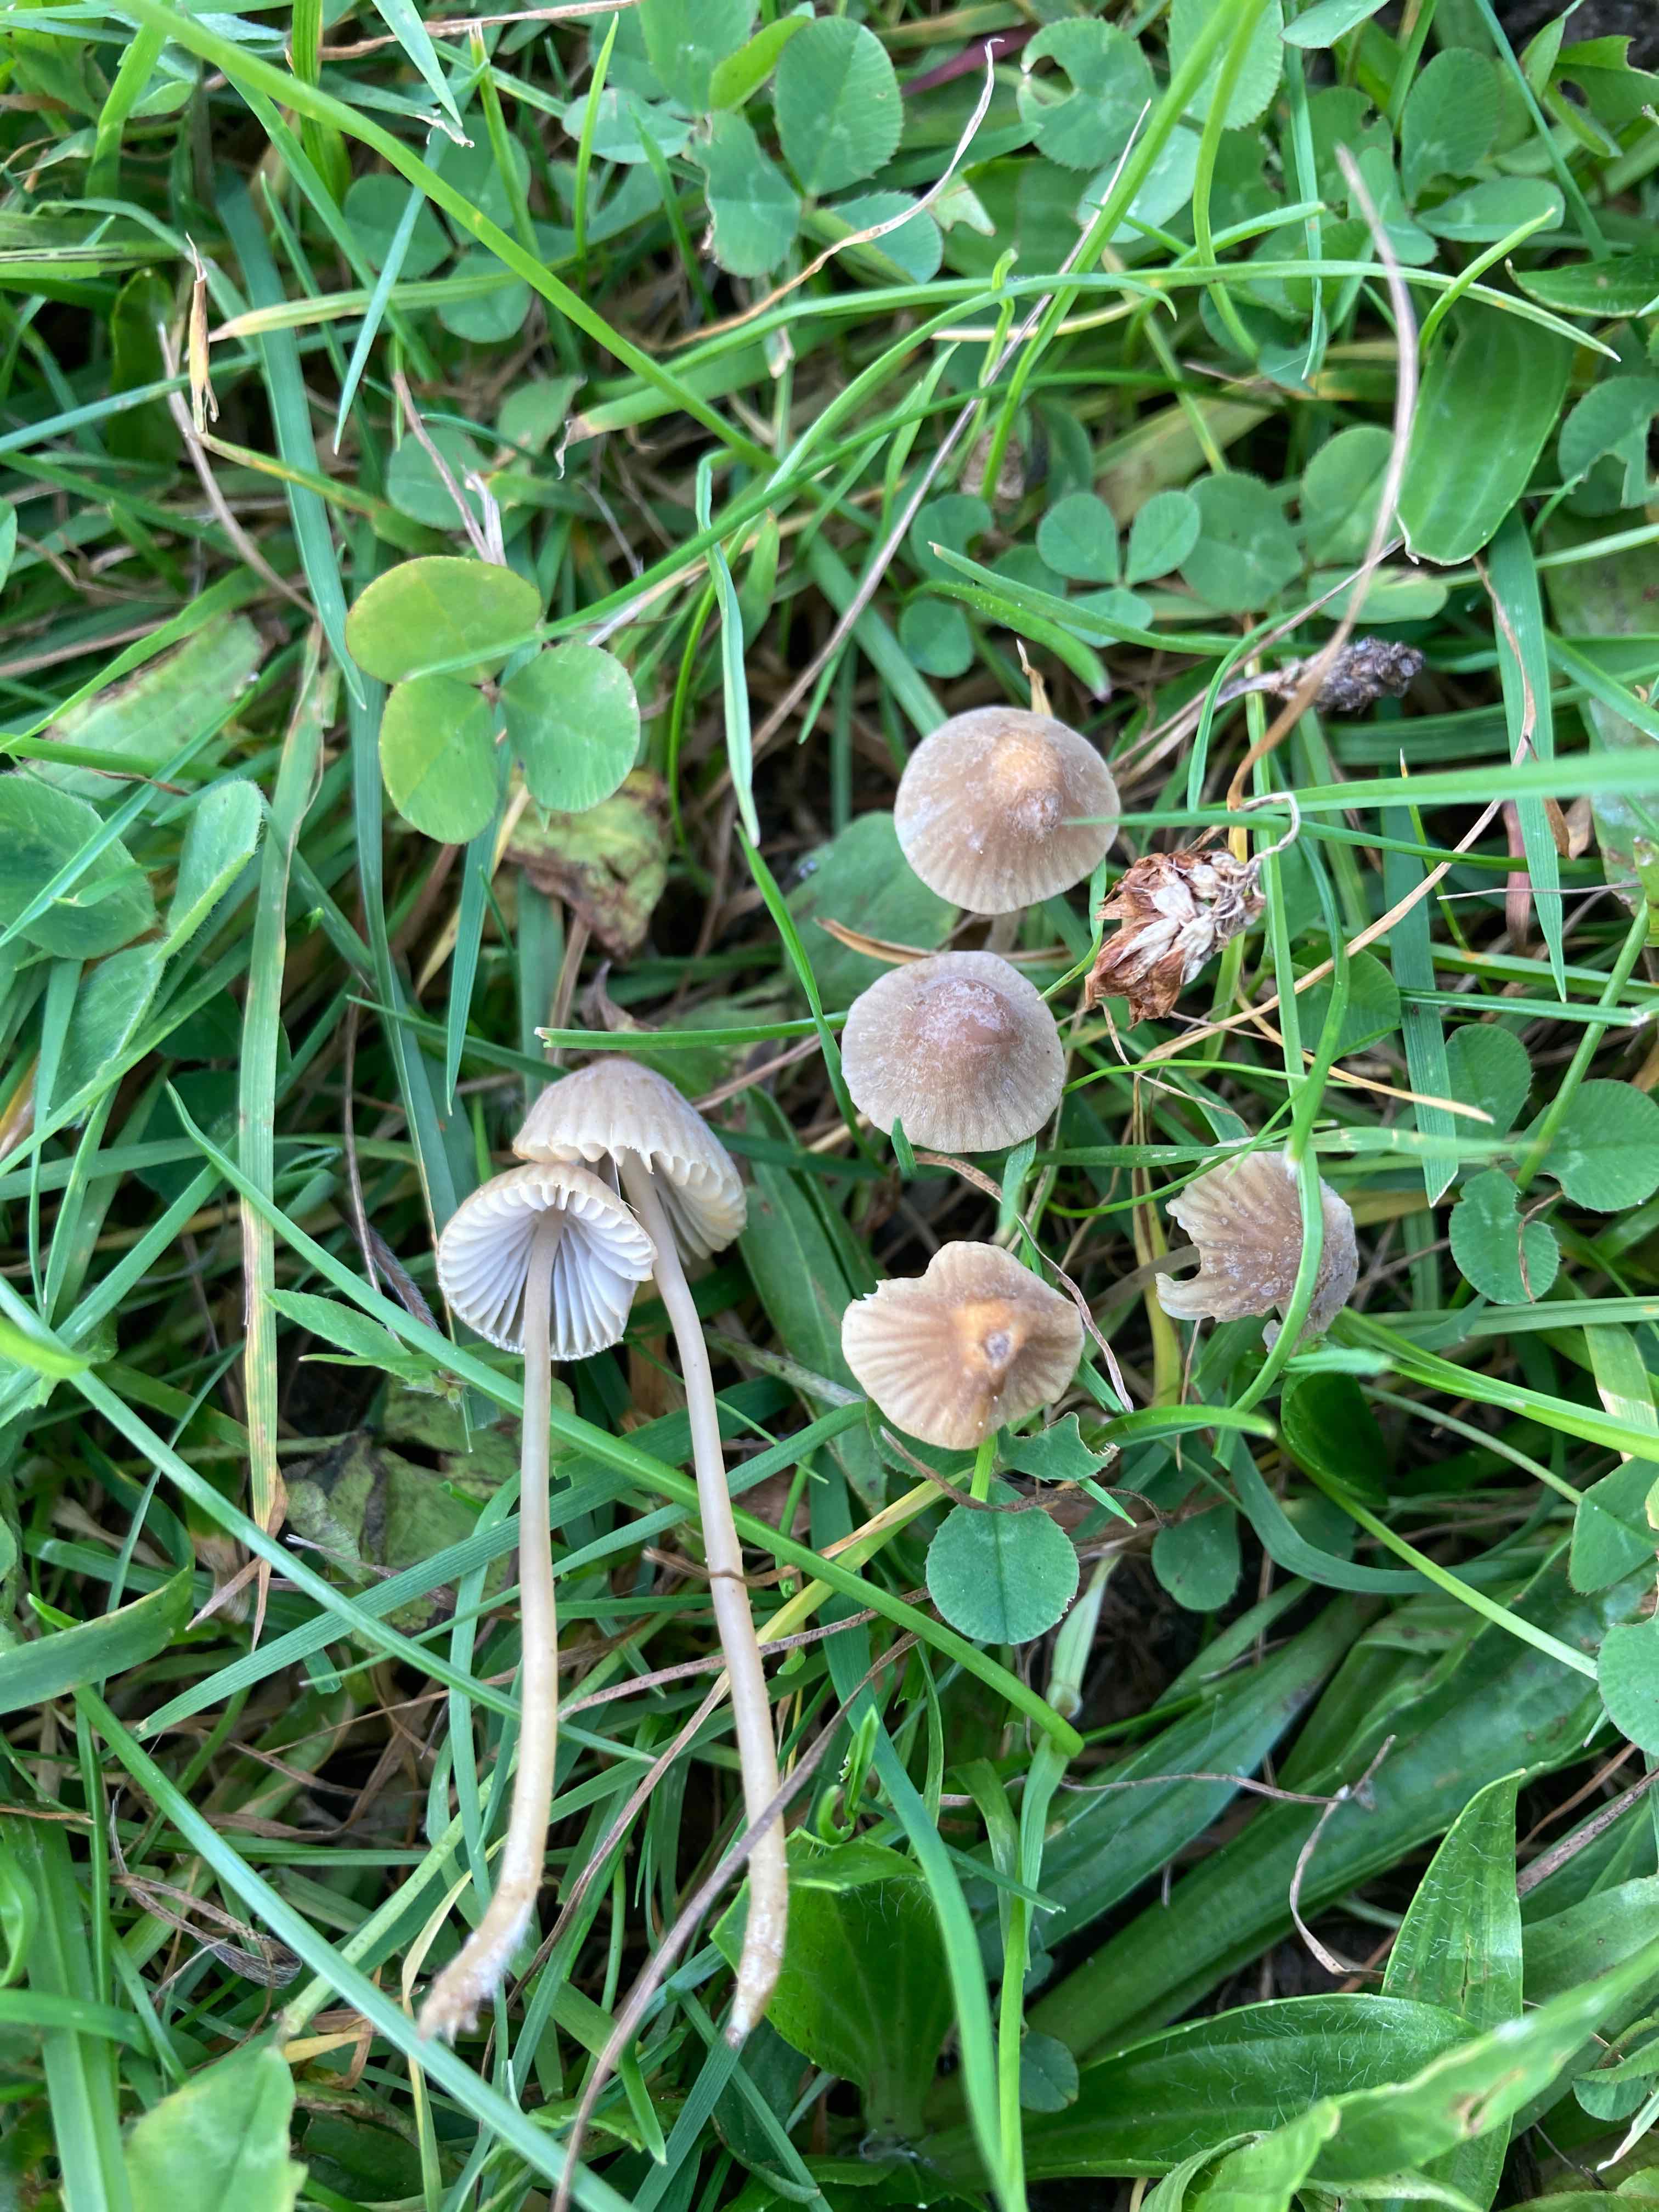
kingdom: Fungi
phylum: Basidiomycota
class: Agaricomycetes
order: Agaricales
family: Mycenaceae
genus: Mycena
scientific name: Mycena olivaceomarginata
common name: brunægget huesvamp
